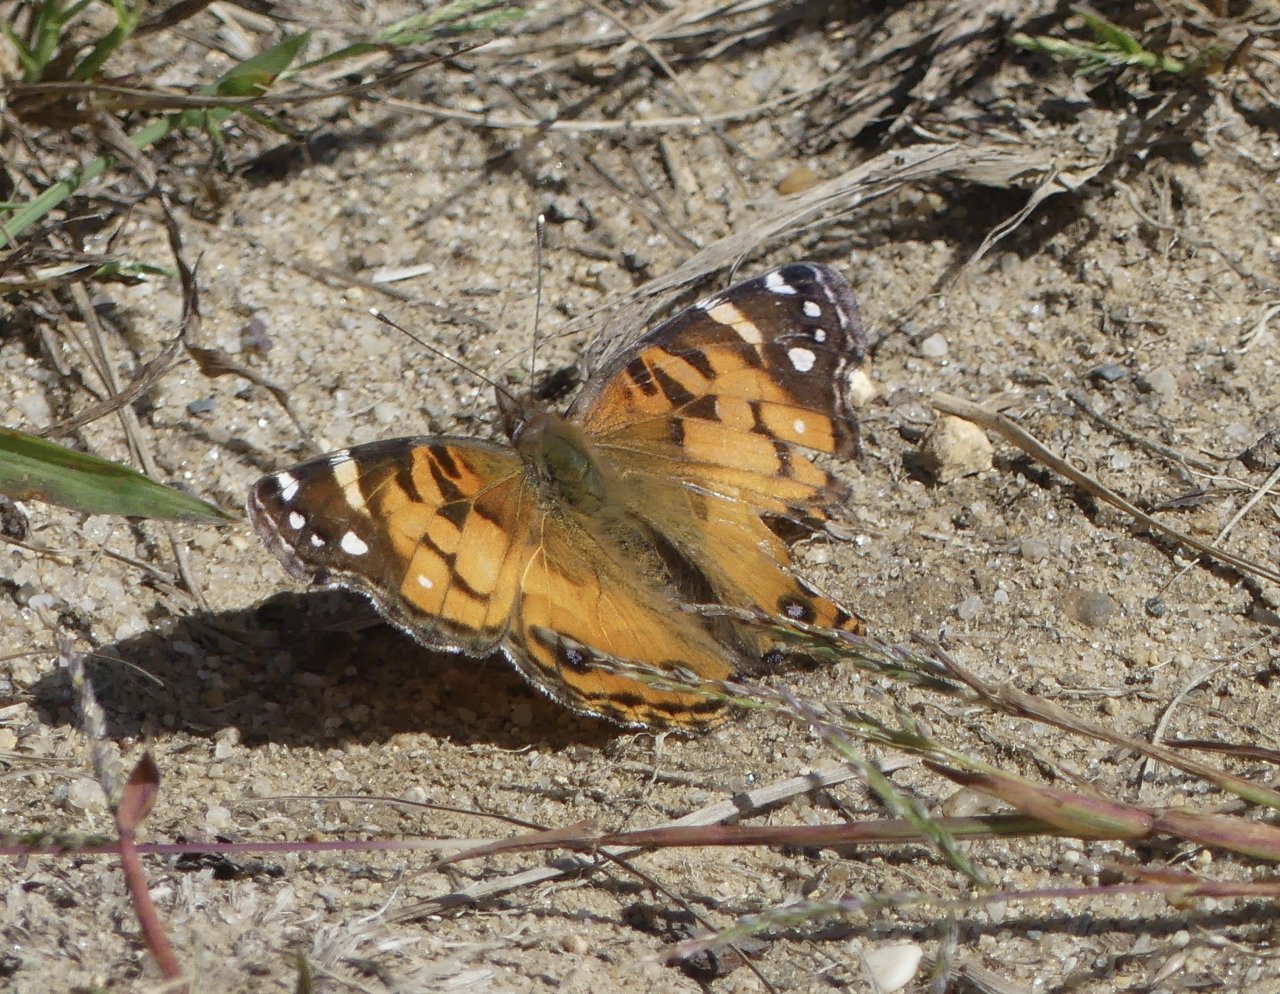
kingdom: Animalia
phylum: Arthropoda
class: Insecta
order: Lepidoptera
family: Nymphalidae
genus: Vanessa
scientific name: Vanessa virginiensis
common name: American Lady
